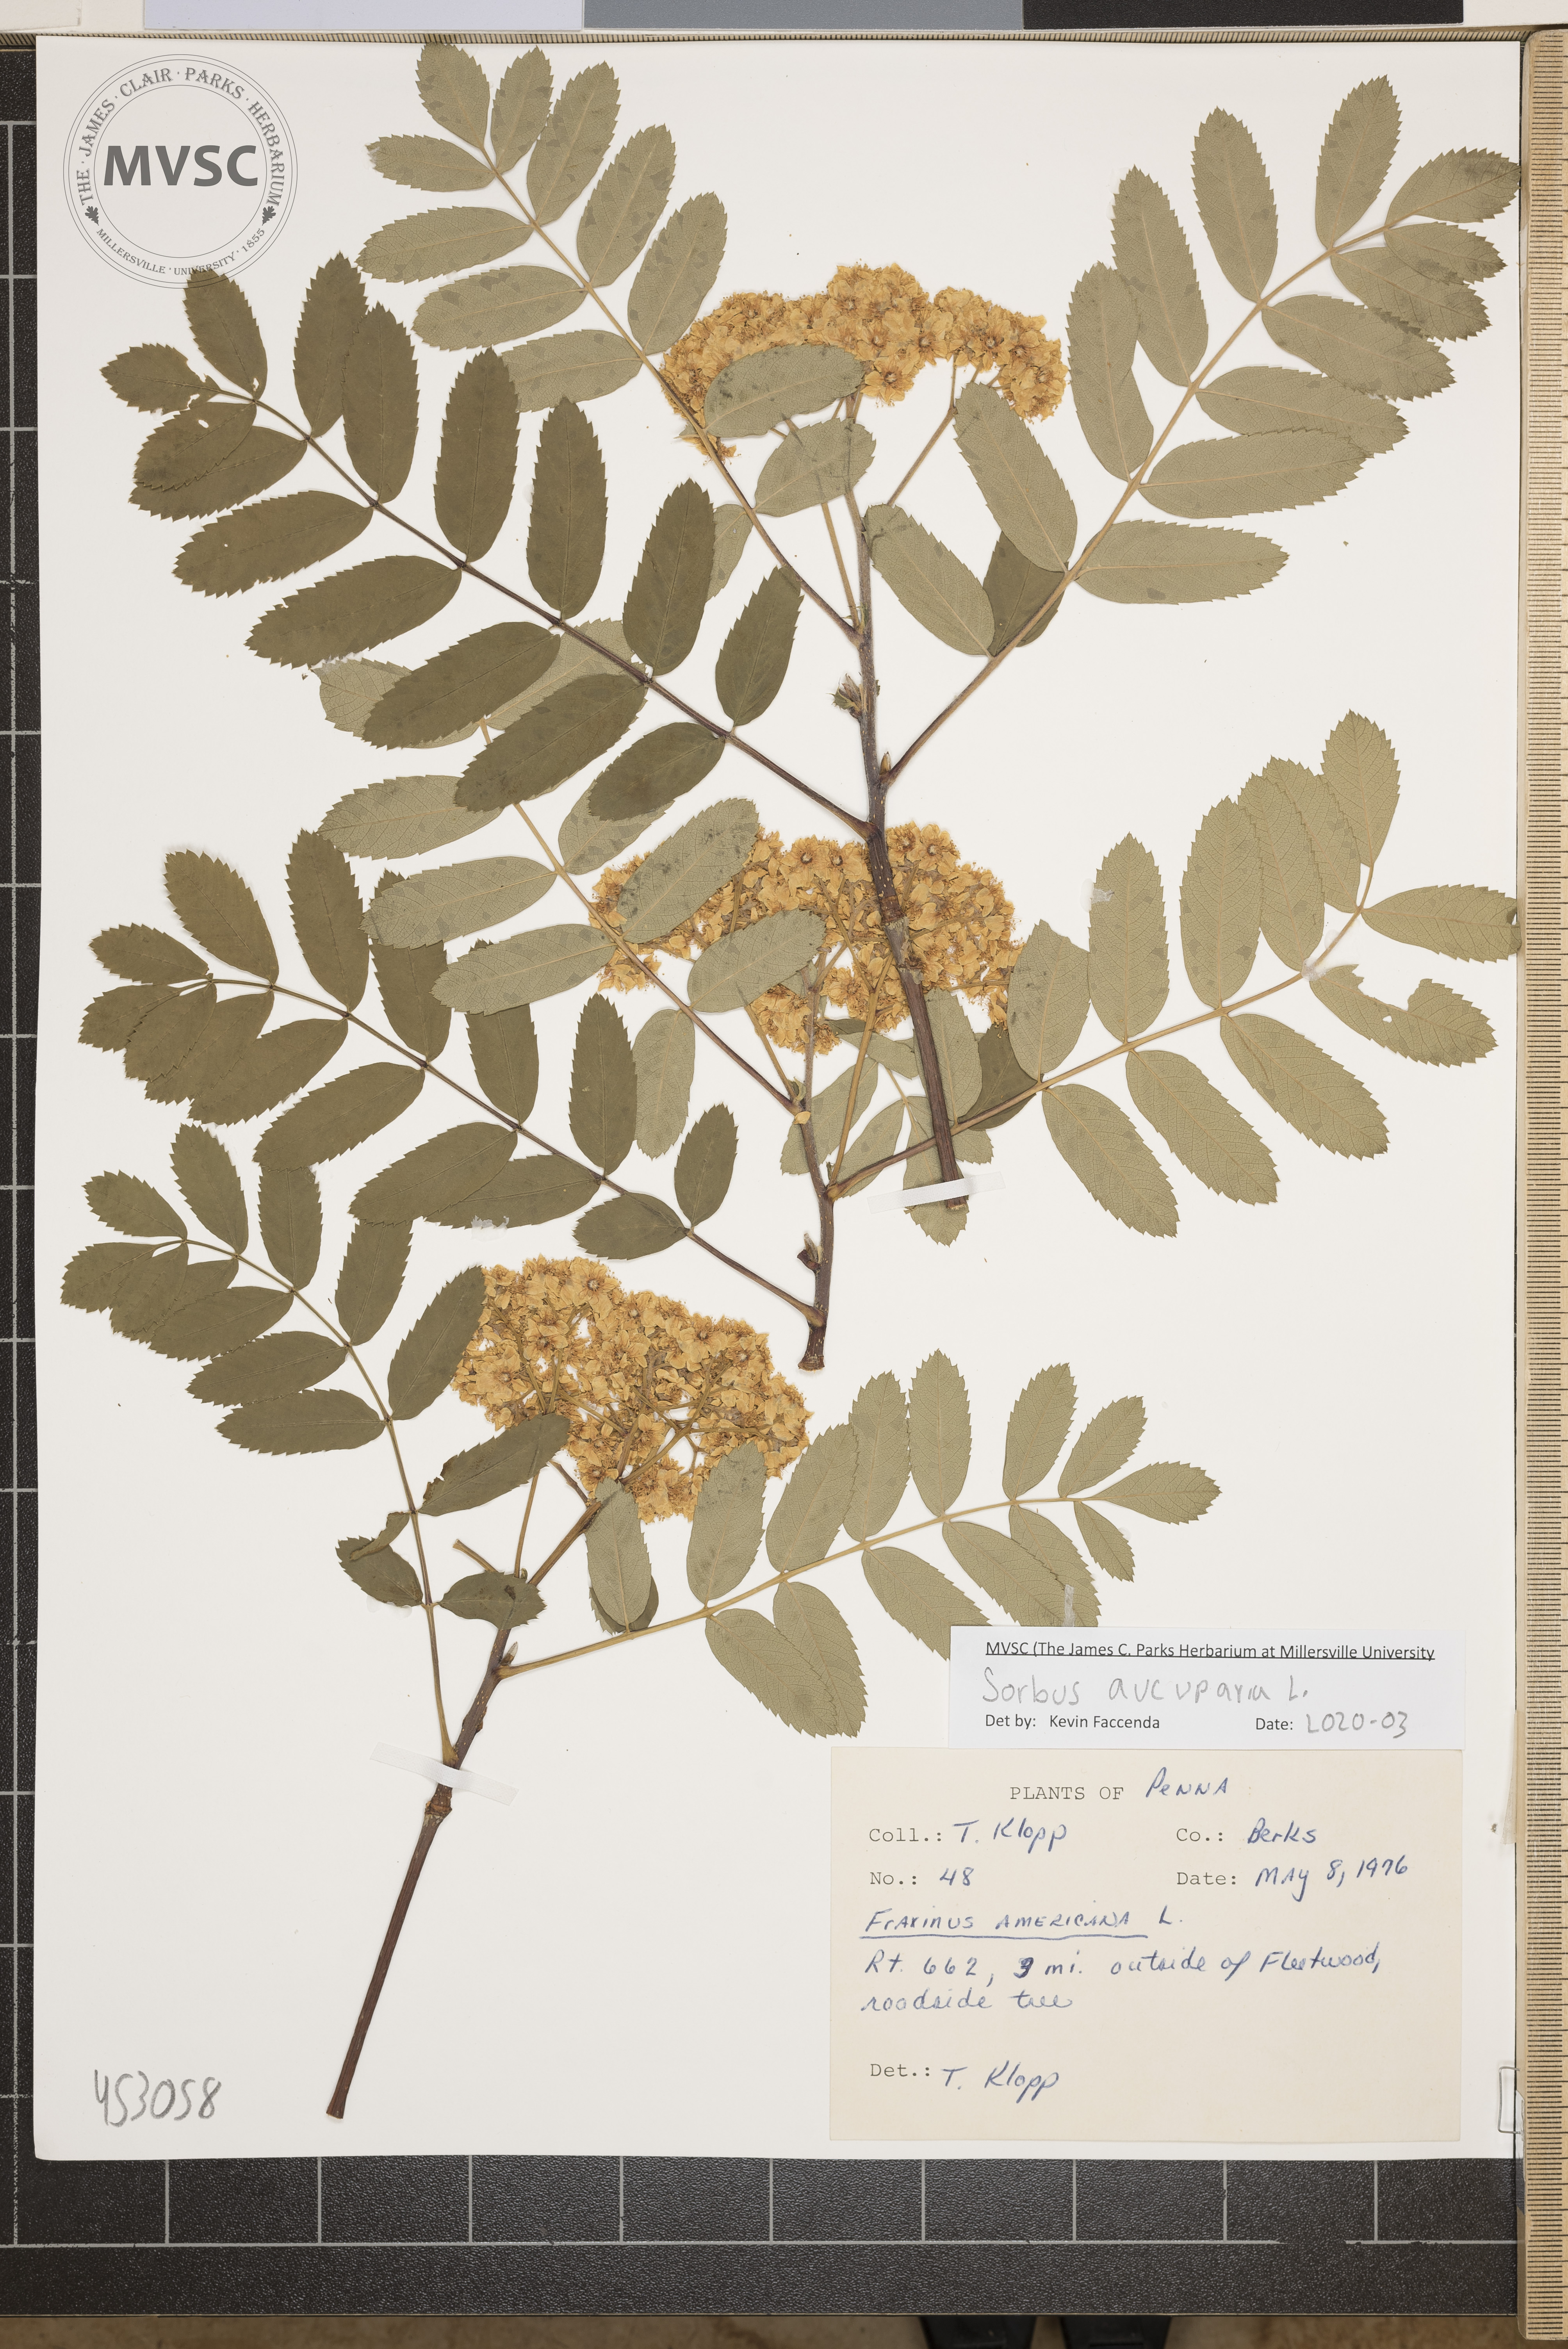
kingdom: Plantae
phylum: Tracheophyta
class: Magnoliopsida
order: Rosales
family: Rosaceae
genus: Sorbus
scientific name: Sorbus aucuparia
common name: Rowan
